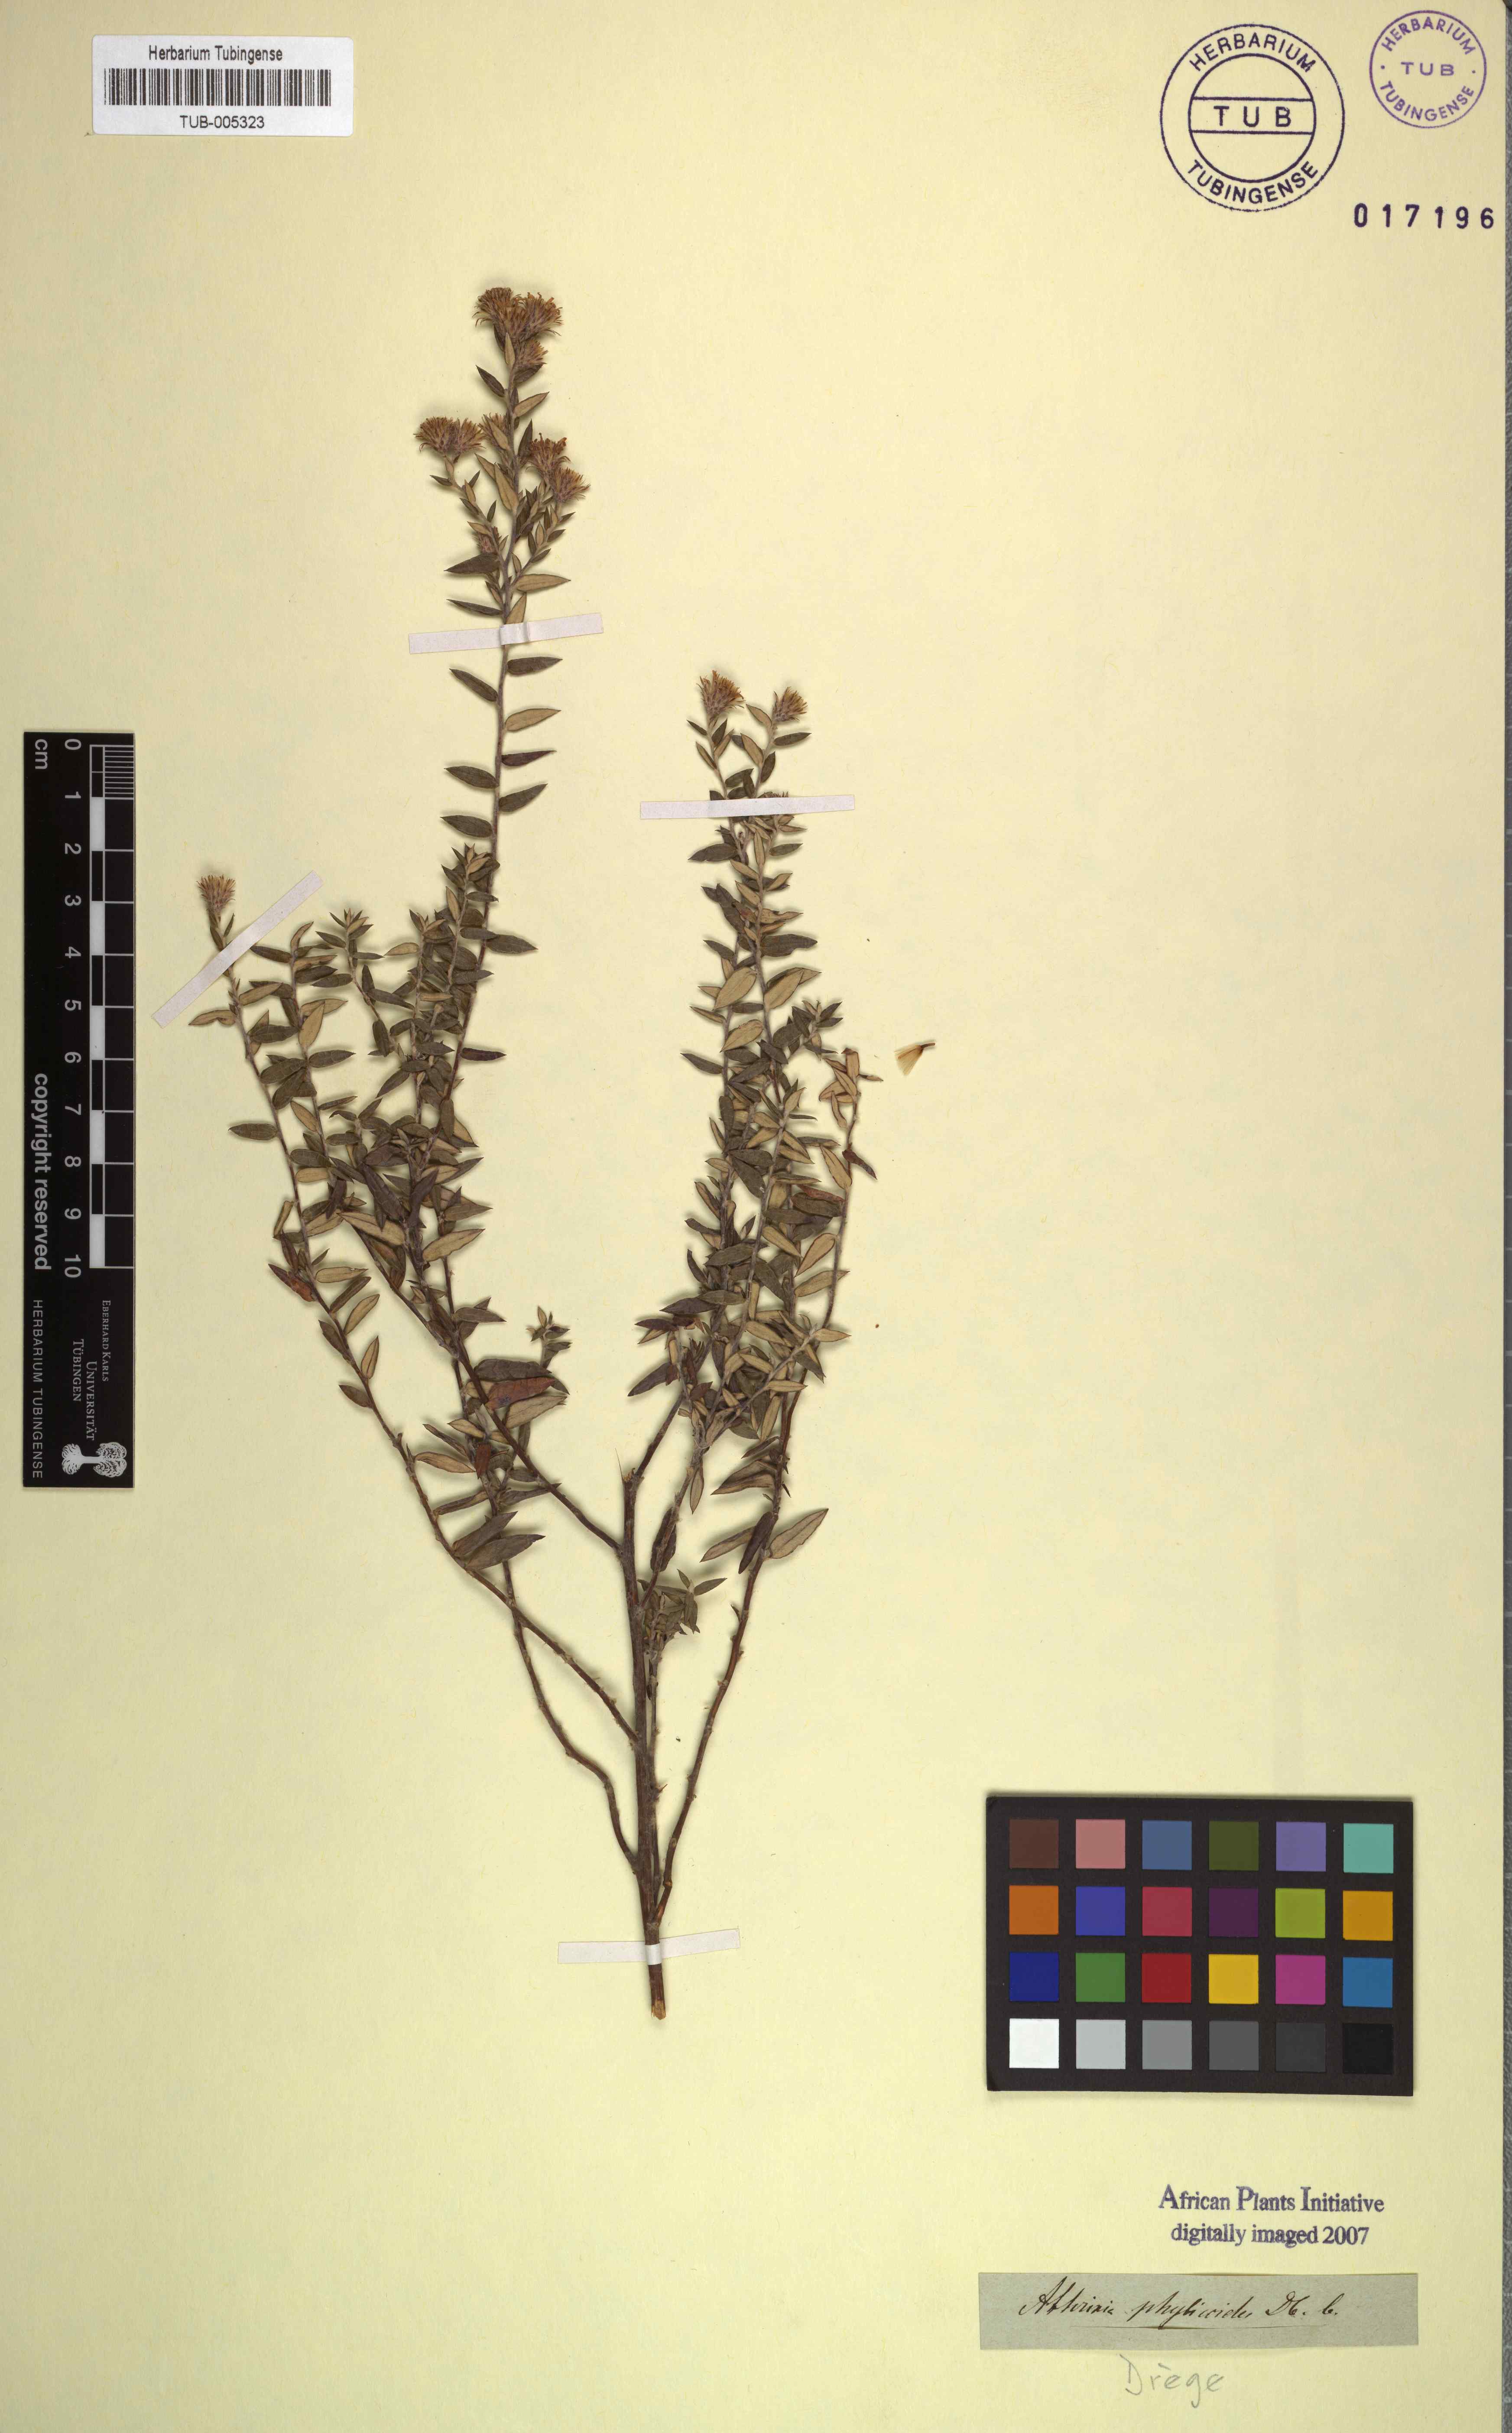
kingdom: Plantae
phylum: Tracheophyta
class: Magnoliopsida
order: Asterales
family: Asteraceae
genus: Athrixia
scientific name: Athrixia phylicoides
